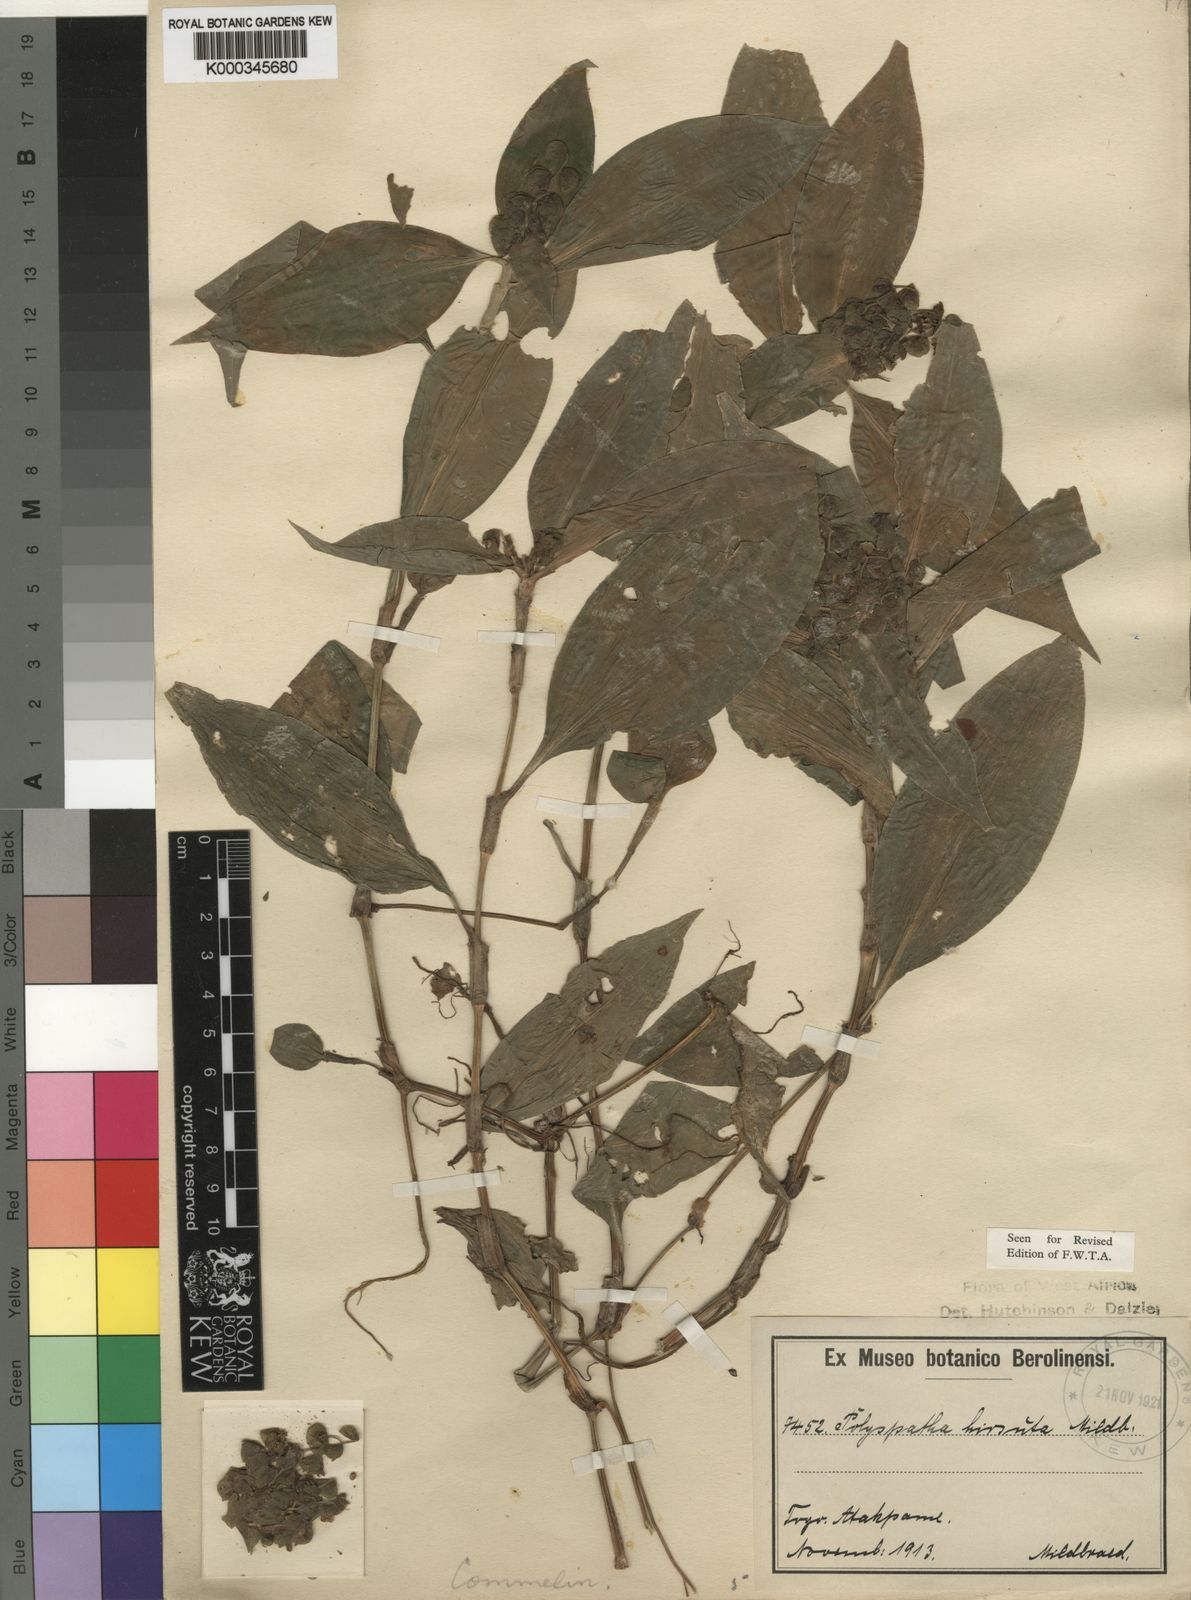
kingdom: Plantae
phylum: Tracheophyta
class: Liliopsida
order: Commelinales
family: Commelinaceae
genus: Polyspatha
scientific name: Polyspatha hirsuta
